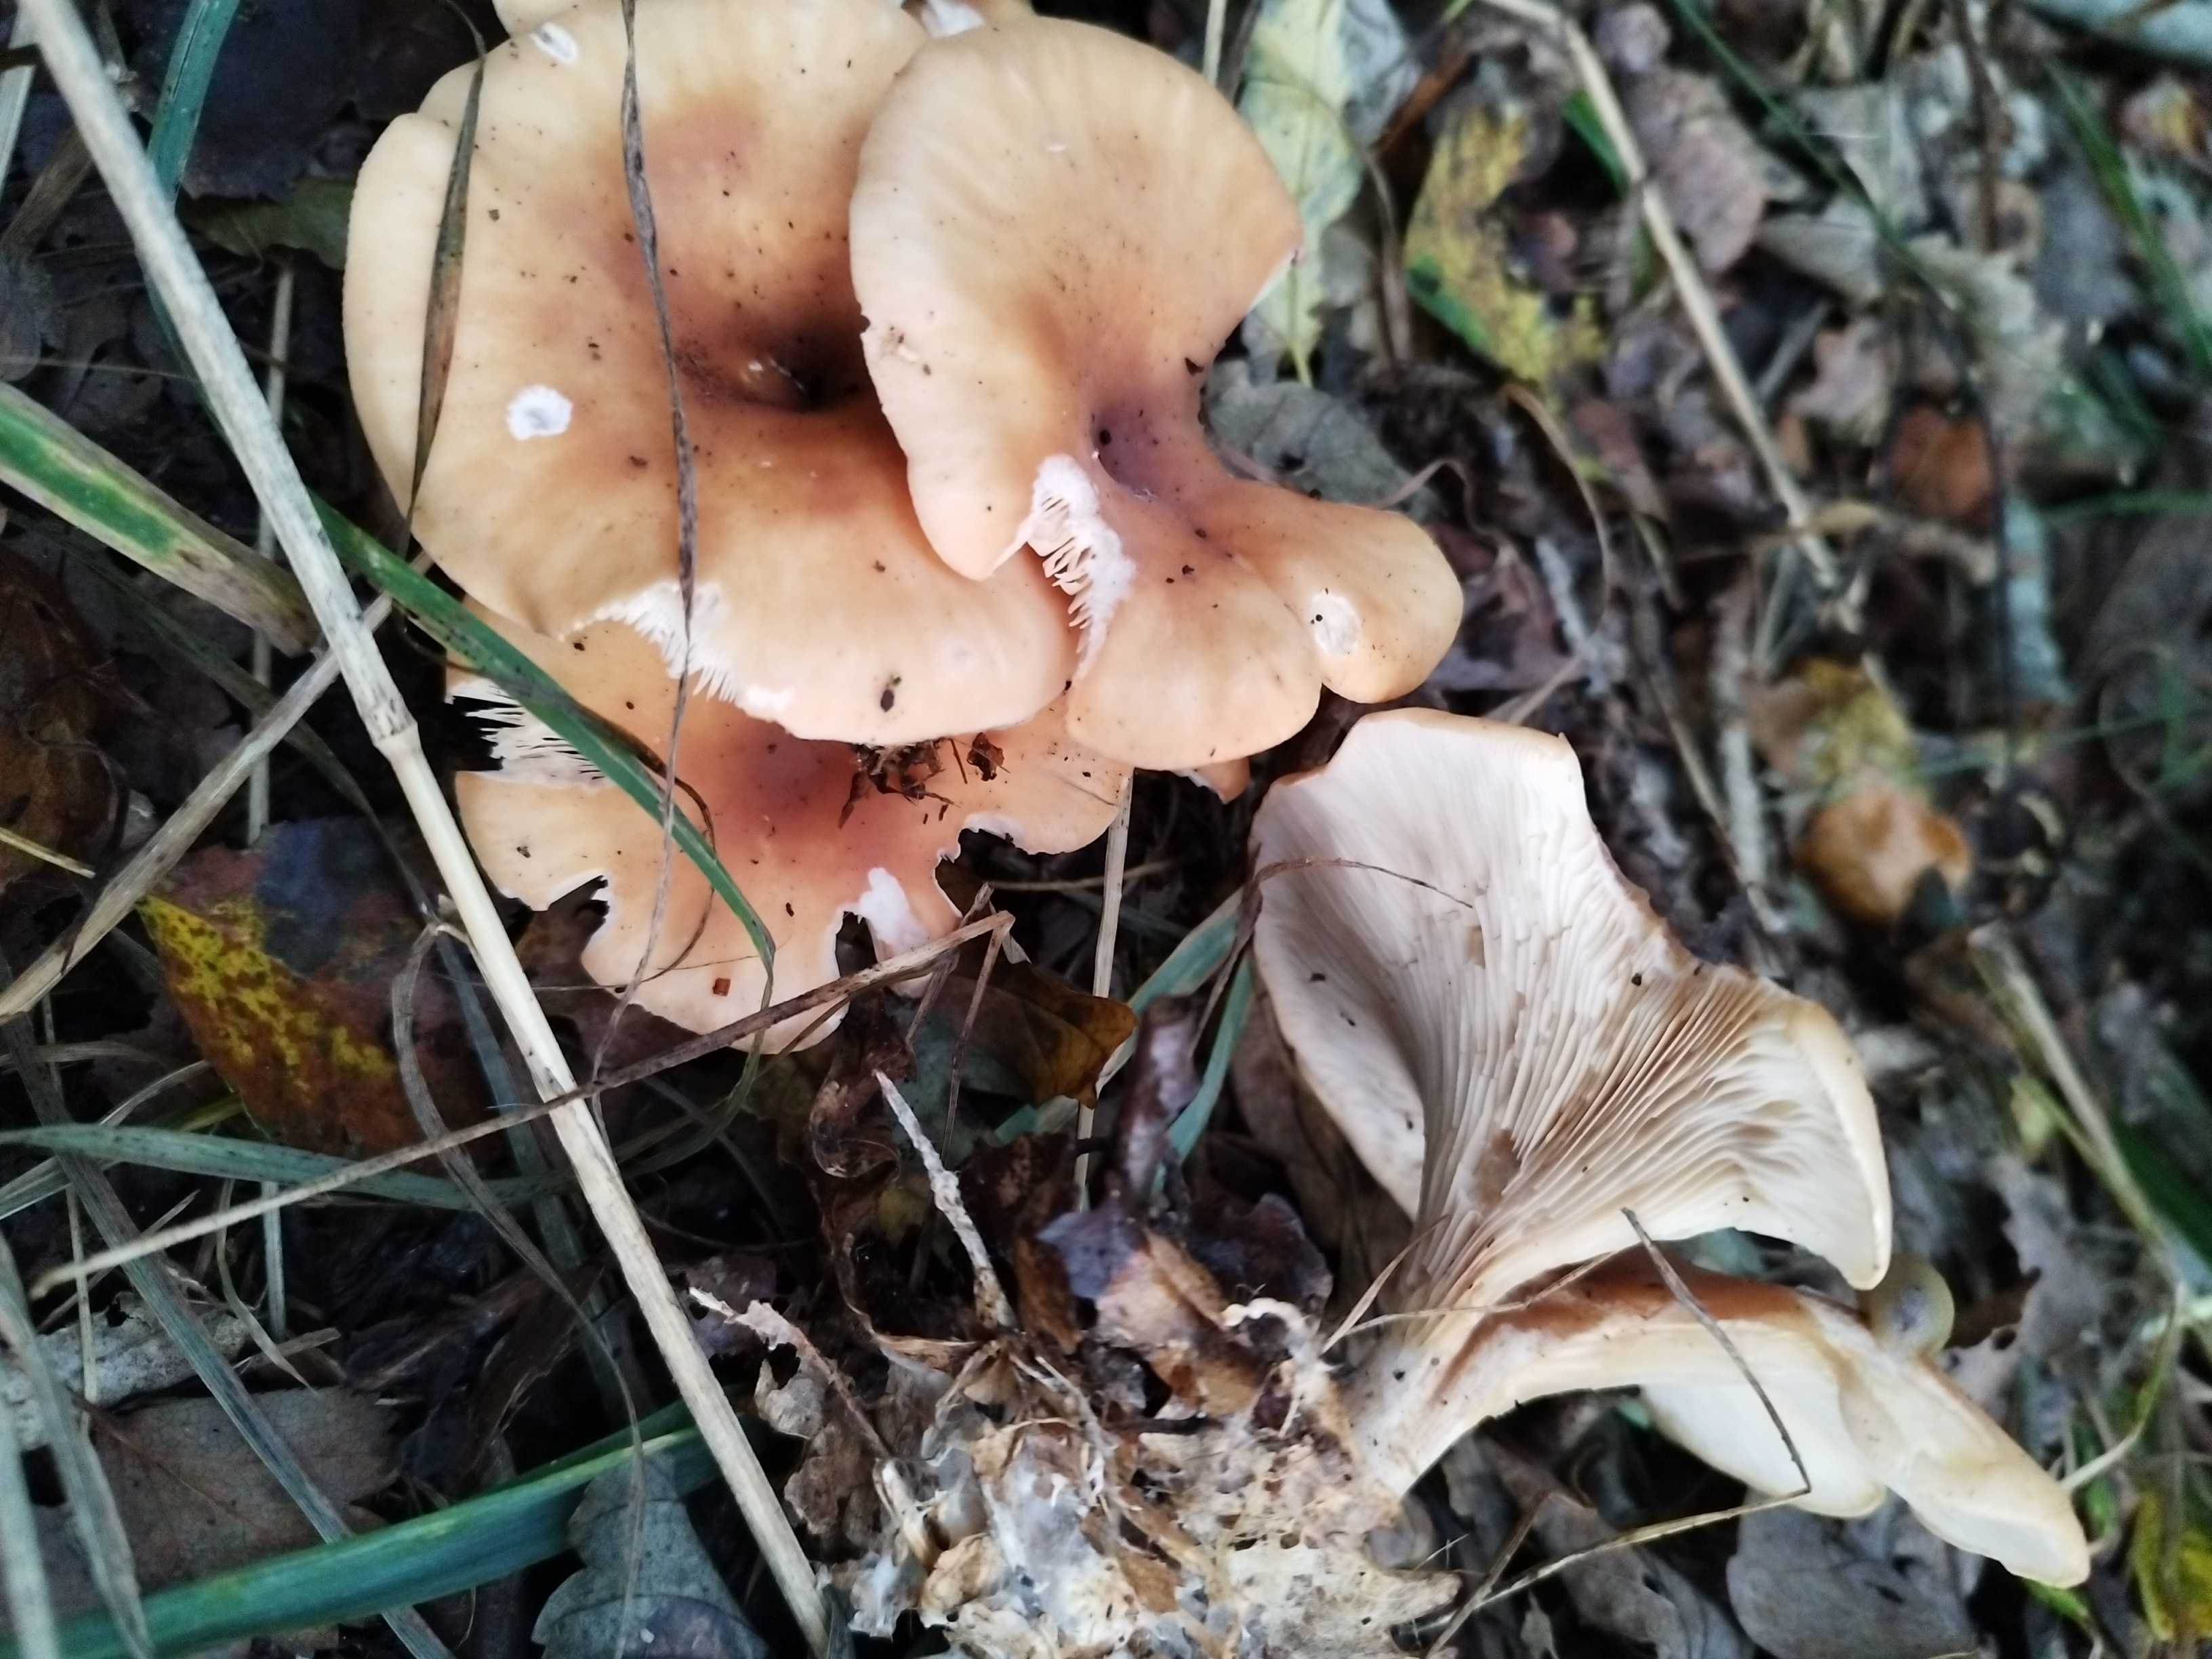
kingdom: Fungi
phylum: Basidiomycota
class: Agaricomycetes
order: Agaricales
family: Tricholomataceae
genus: Paralepista
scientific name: Paralepista flaccida
